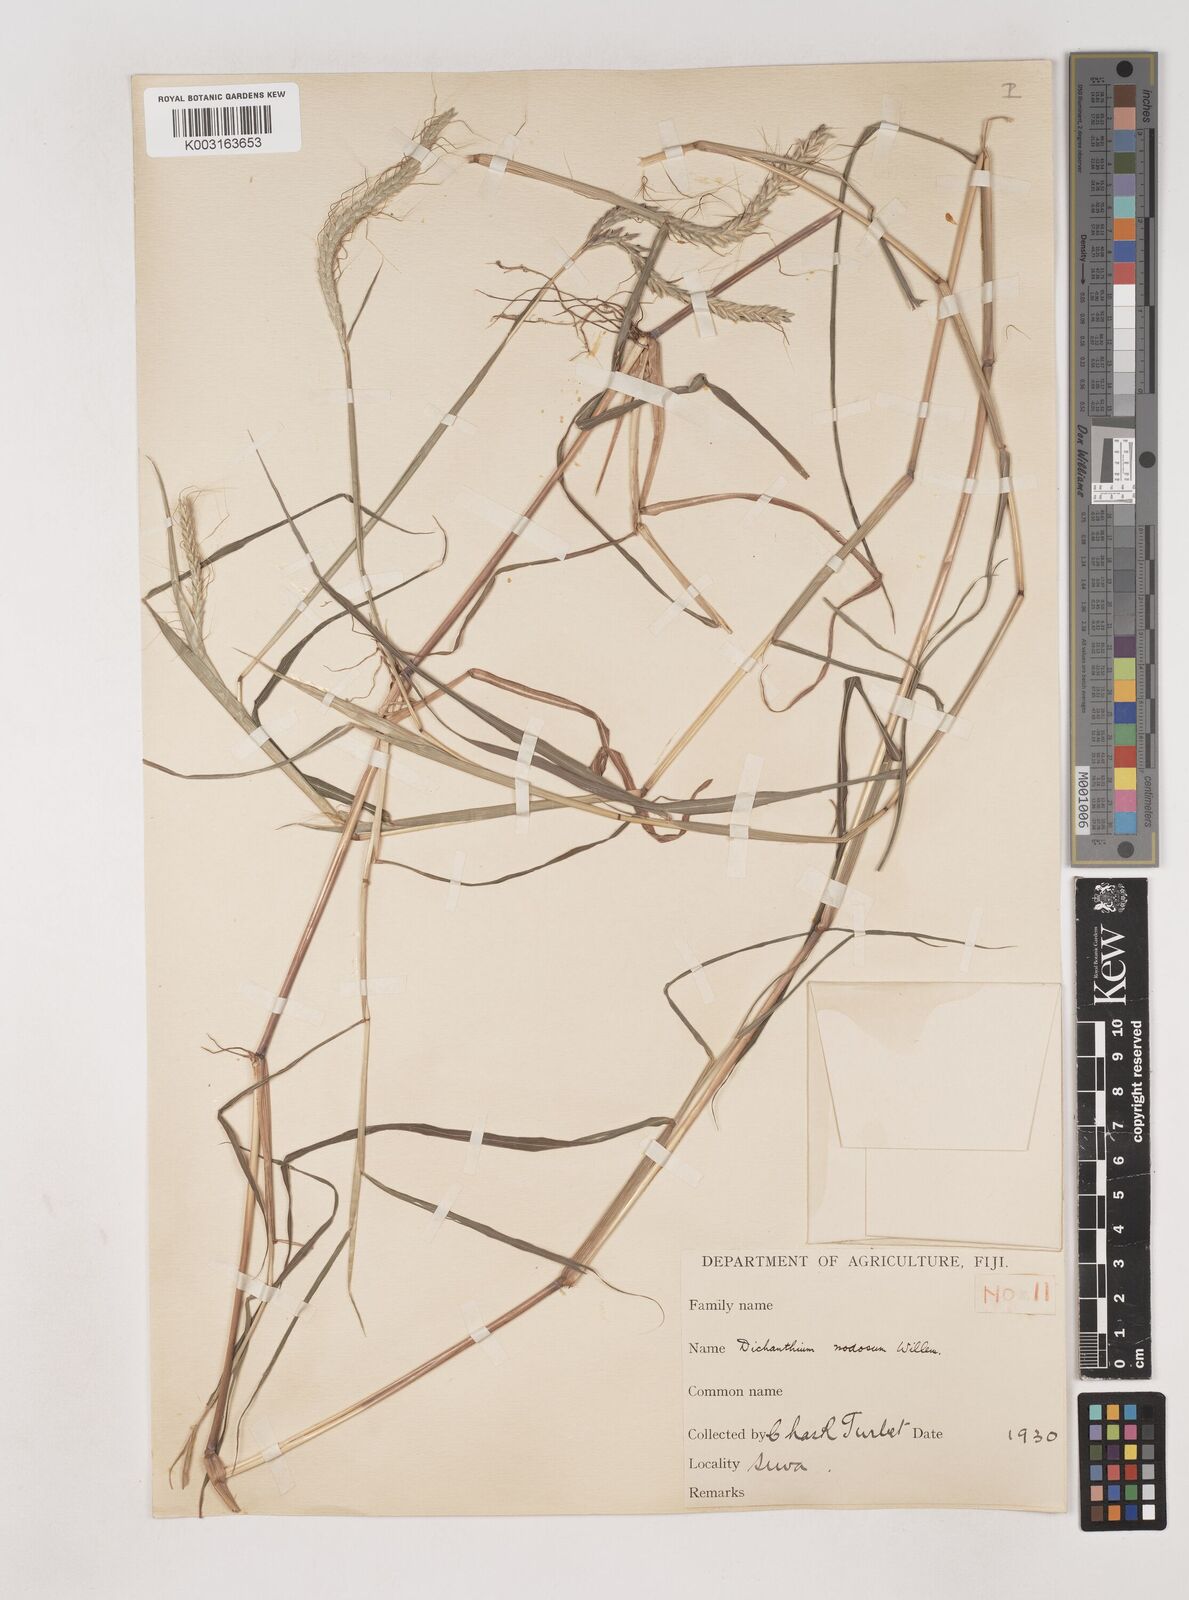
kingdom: Plantae
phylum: Tracheophyta
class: Liliopsida
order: Poales
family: Poaceae
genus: Dichanthium
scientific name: Dichanthium caricosum
